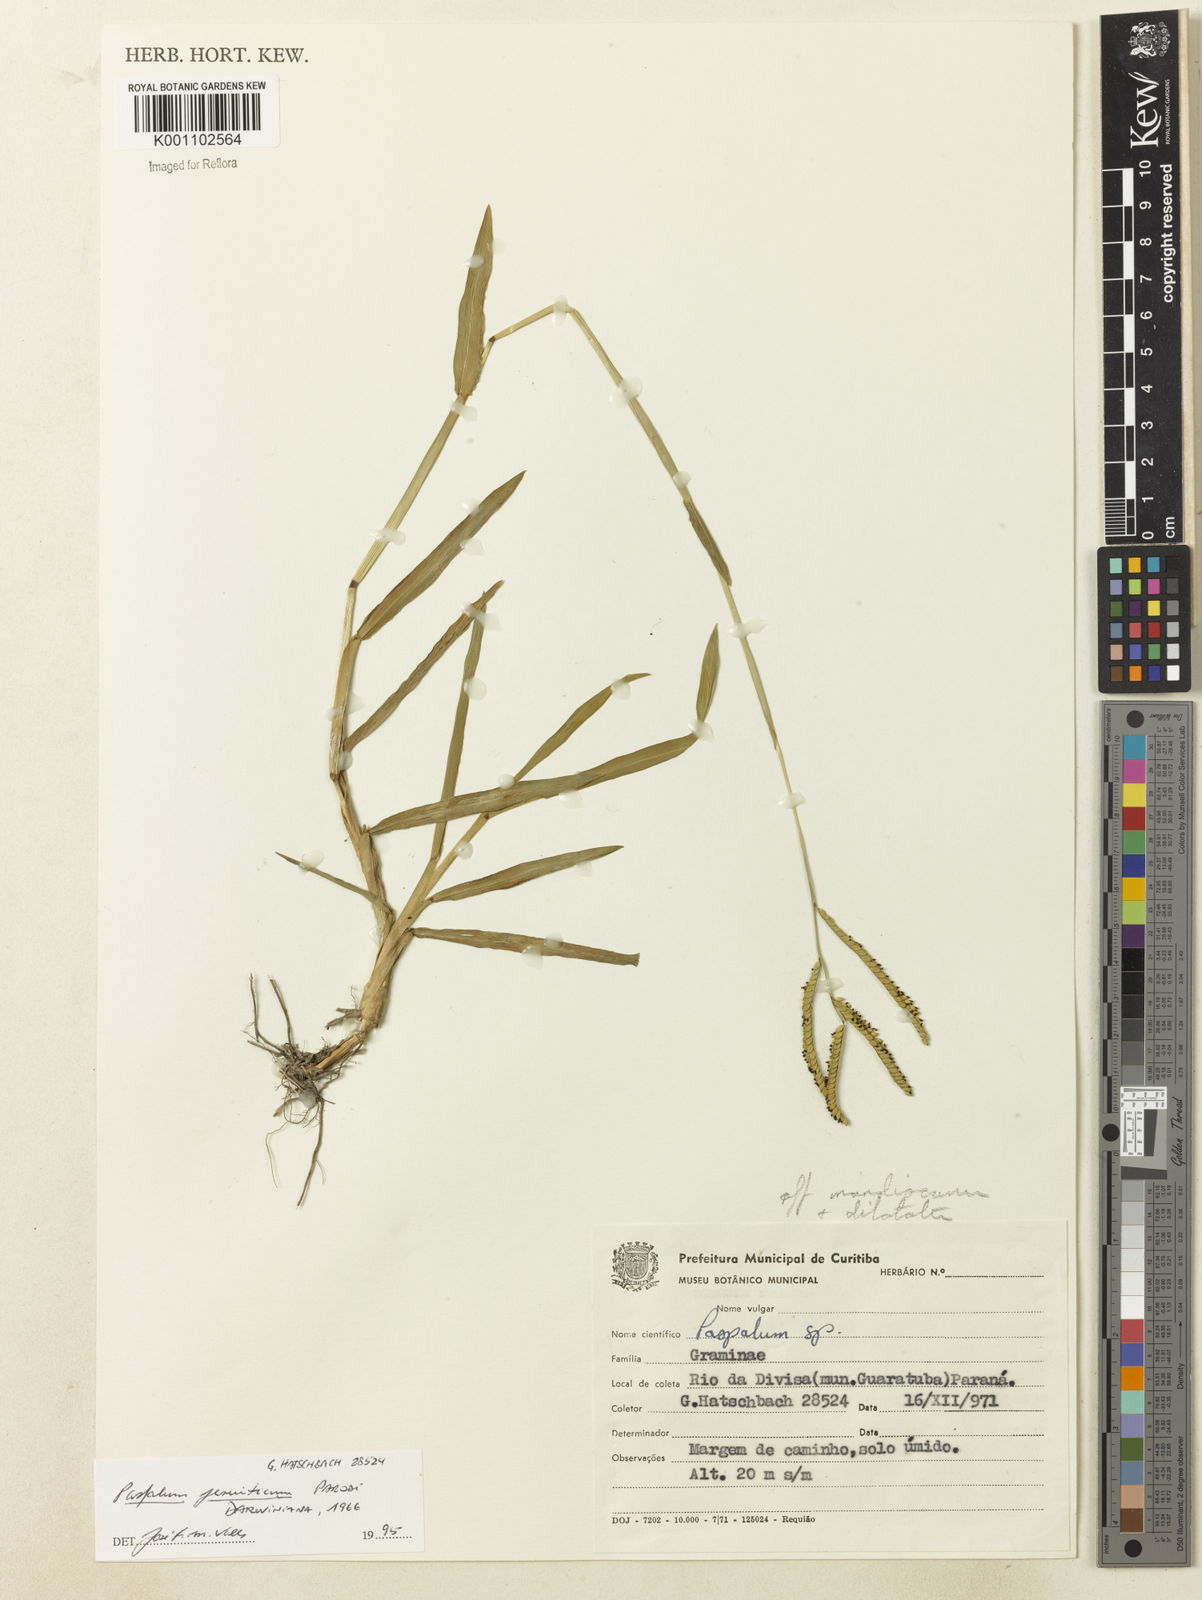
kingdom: Plantae
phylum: Tracheophyta
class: Liliopsida
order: Poales
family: Poaceae
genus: Paspalum
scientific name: Paspalum jesuiticum
